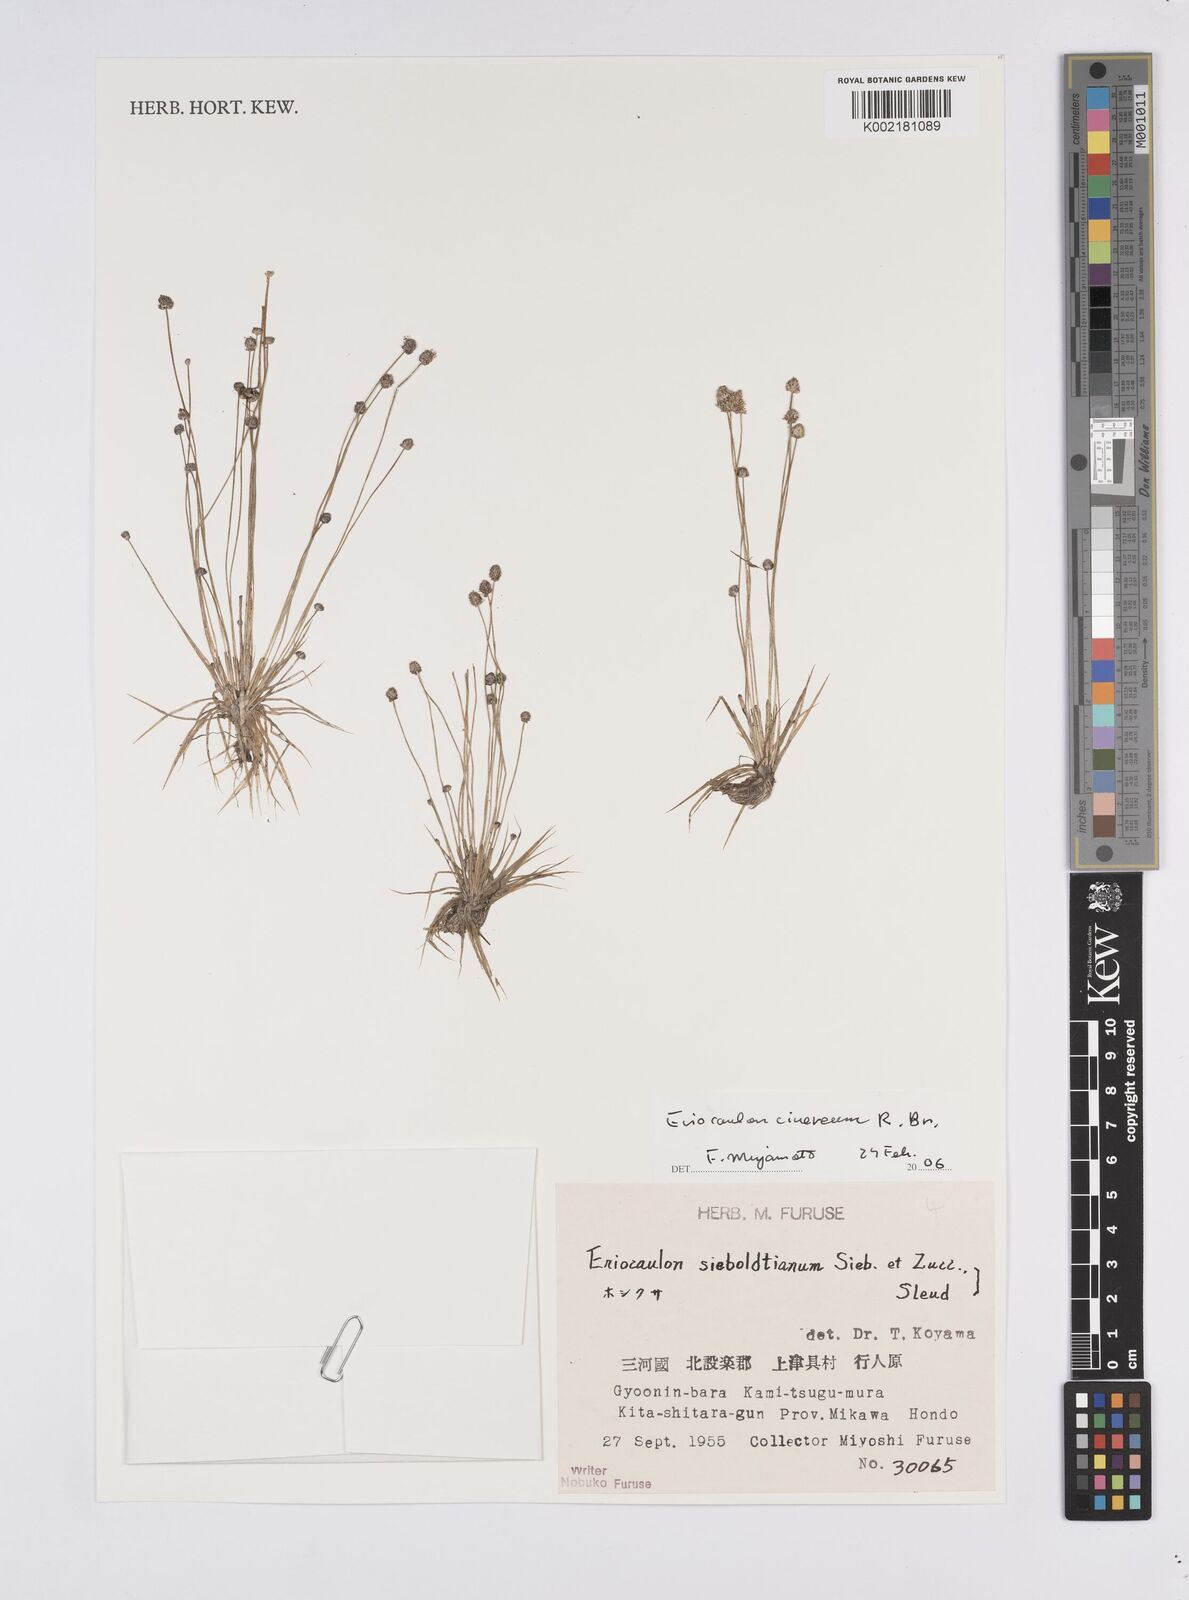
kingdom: Plantae
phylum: Tracheophyta
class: Liliopsida
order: Poales
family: Eriocaulaceae
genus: Eriocaulon
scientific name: Eriocaulon
